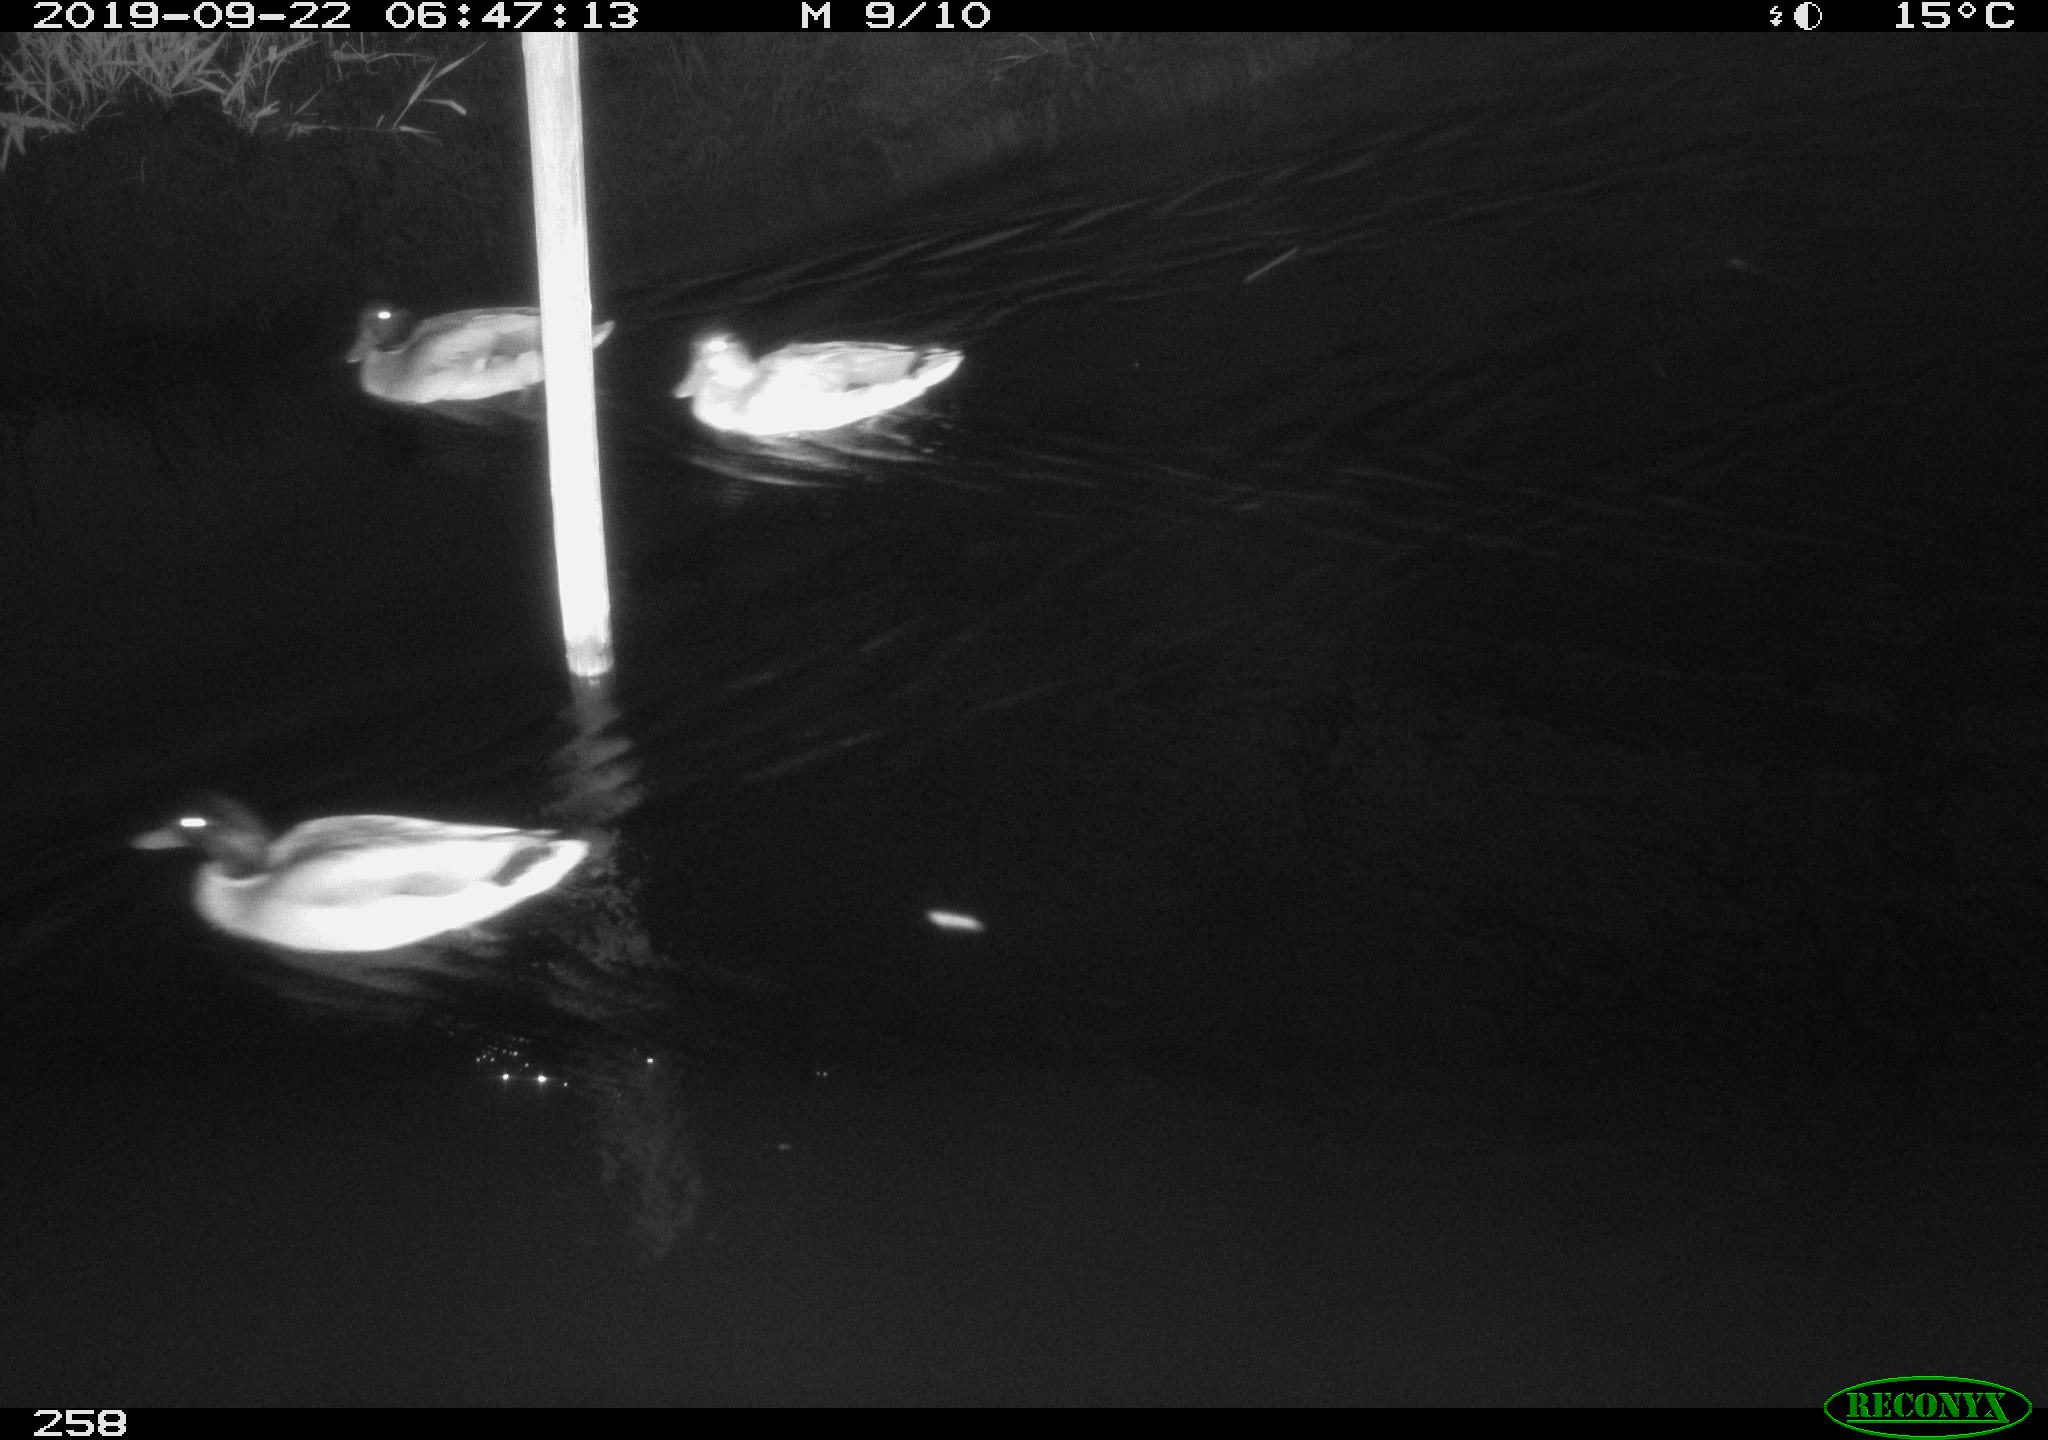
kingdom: Animalia
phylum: Chordata
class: Aves
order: Anseriformes
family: Anatidae
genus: Anas
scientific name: Anas platyrhynchos
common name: Mallard
